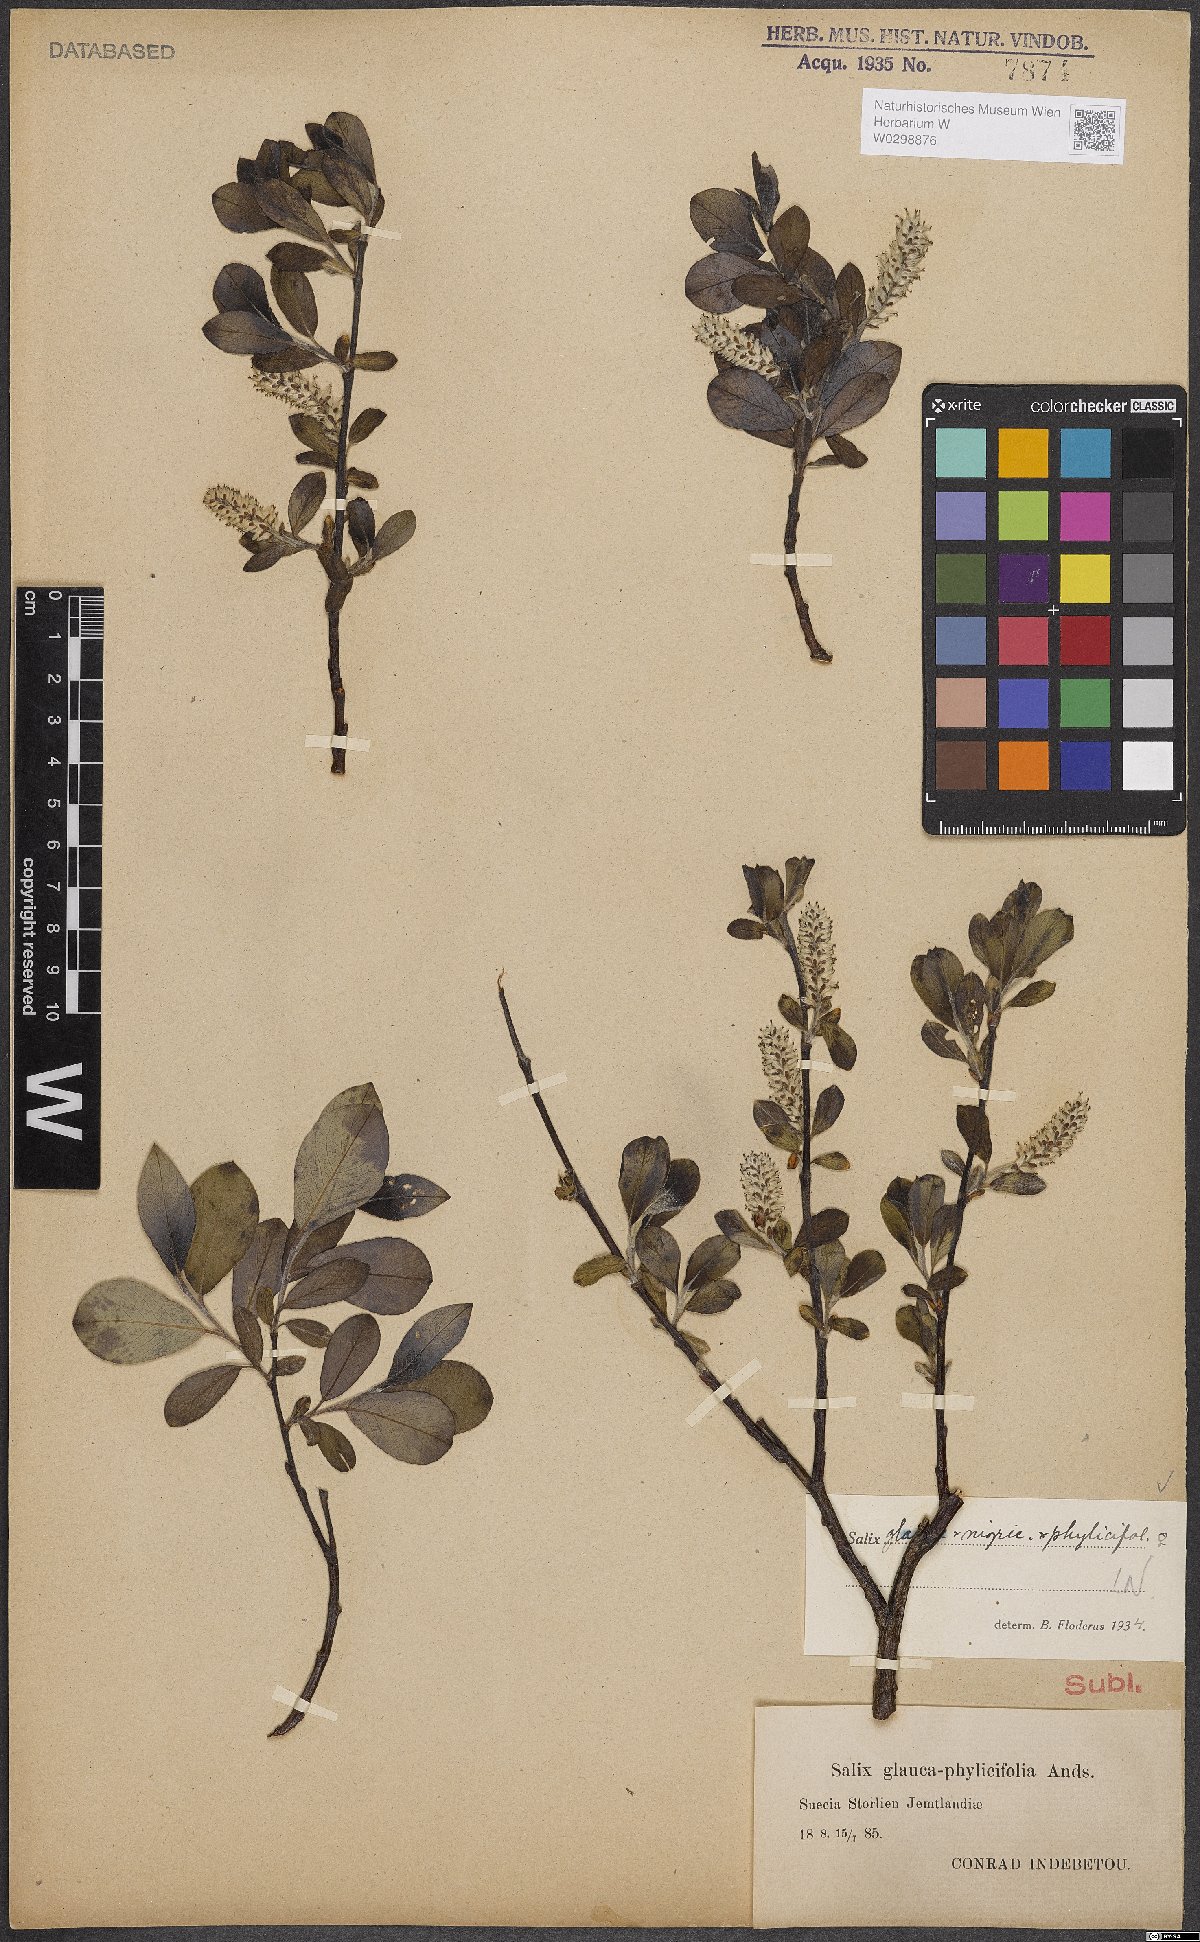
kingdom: Plantae
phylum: Tracheophyta
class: Magnoliopsida
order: Malpighiales
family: Salicaceae
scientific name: Salicaceae
